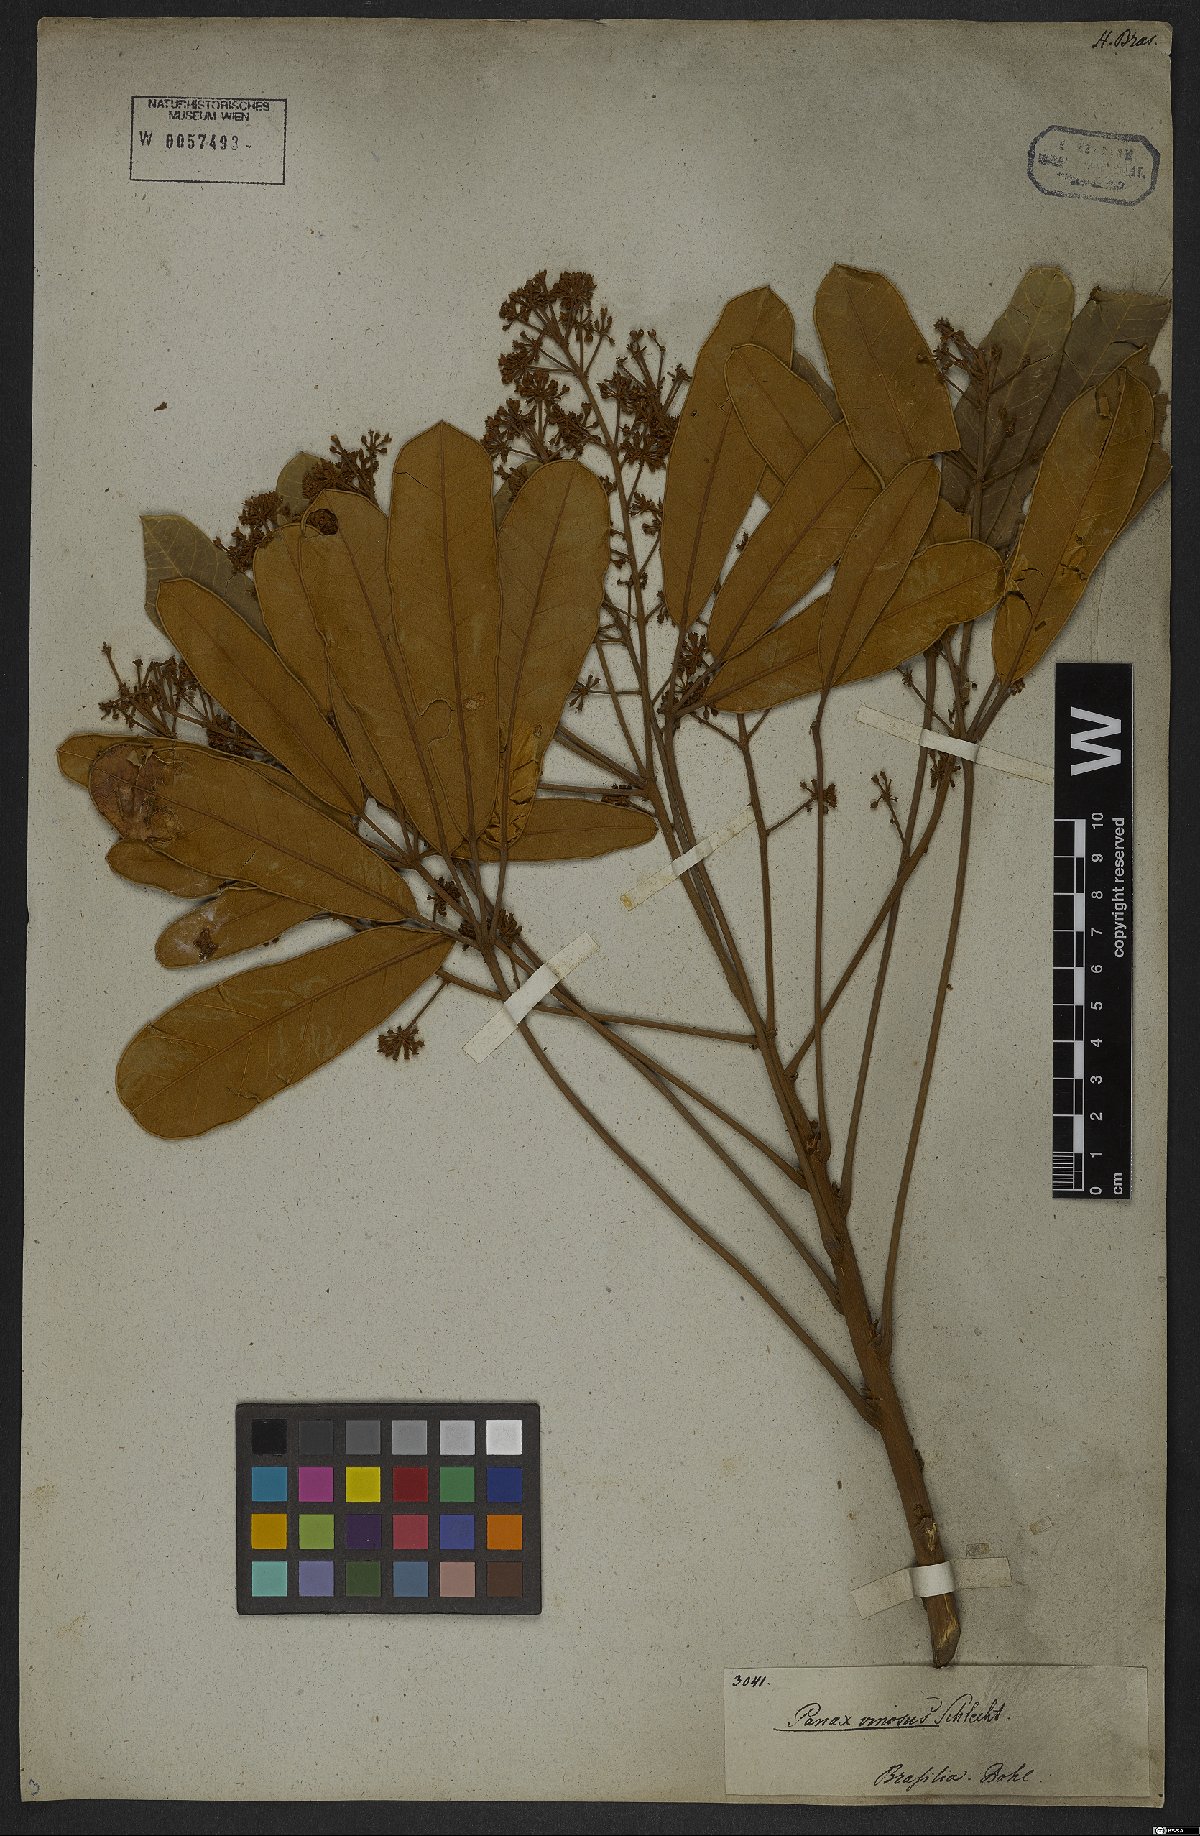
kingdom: Plantae
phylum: Tracheophyta
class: Magnoliopsida
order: Apiales
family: Araliaceae
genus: Didymopanax
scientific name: Didymopanax vinosus
